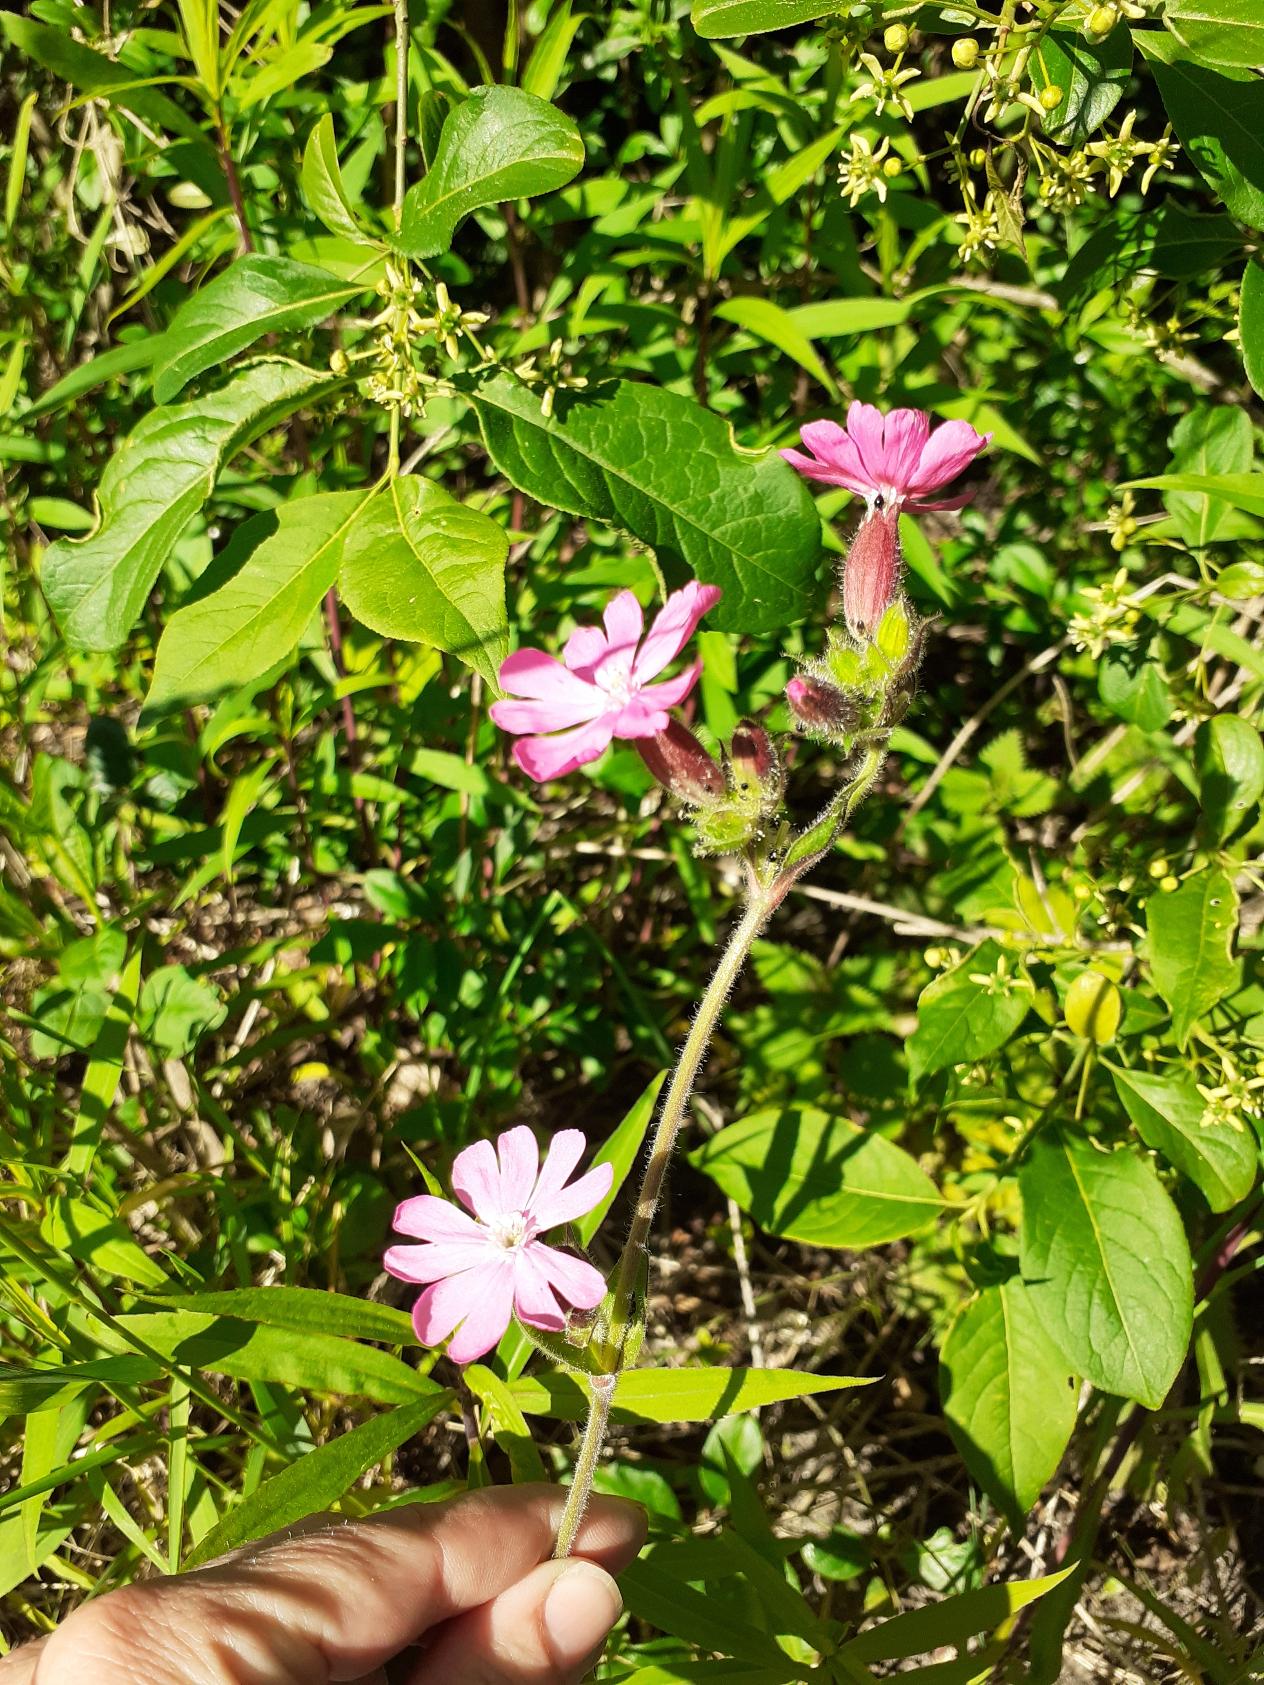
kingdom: Plantae
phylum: Tracheophyta
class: Magnoliopsida
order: Caryophyllales
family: Caryophyllaceae
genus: Silene
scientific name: Silene dioica
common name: Dagpragtstjerne
